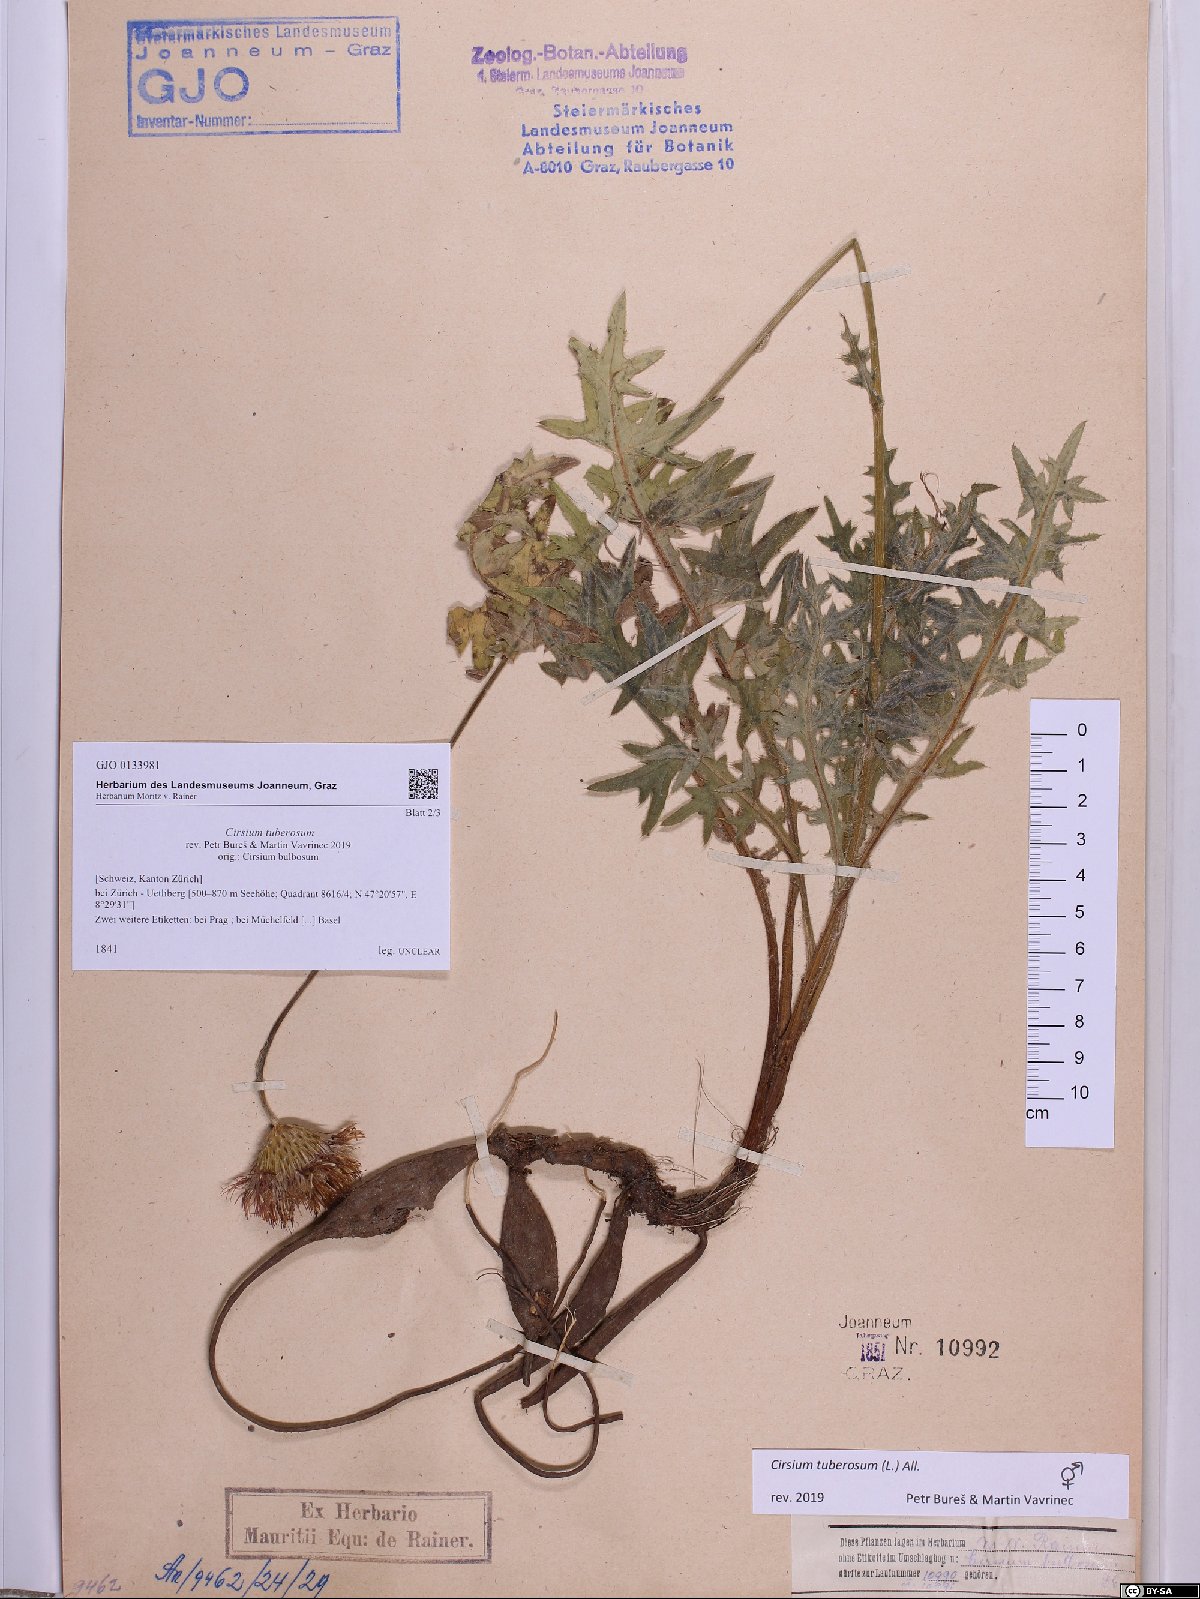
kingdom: Plantae
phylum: Tracheophyta
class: Magnoliopsida
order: Asterales
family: Asteraceae
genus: Cirsium
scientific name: Cirsium tuberosum
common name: Tuberous thistle
